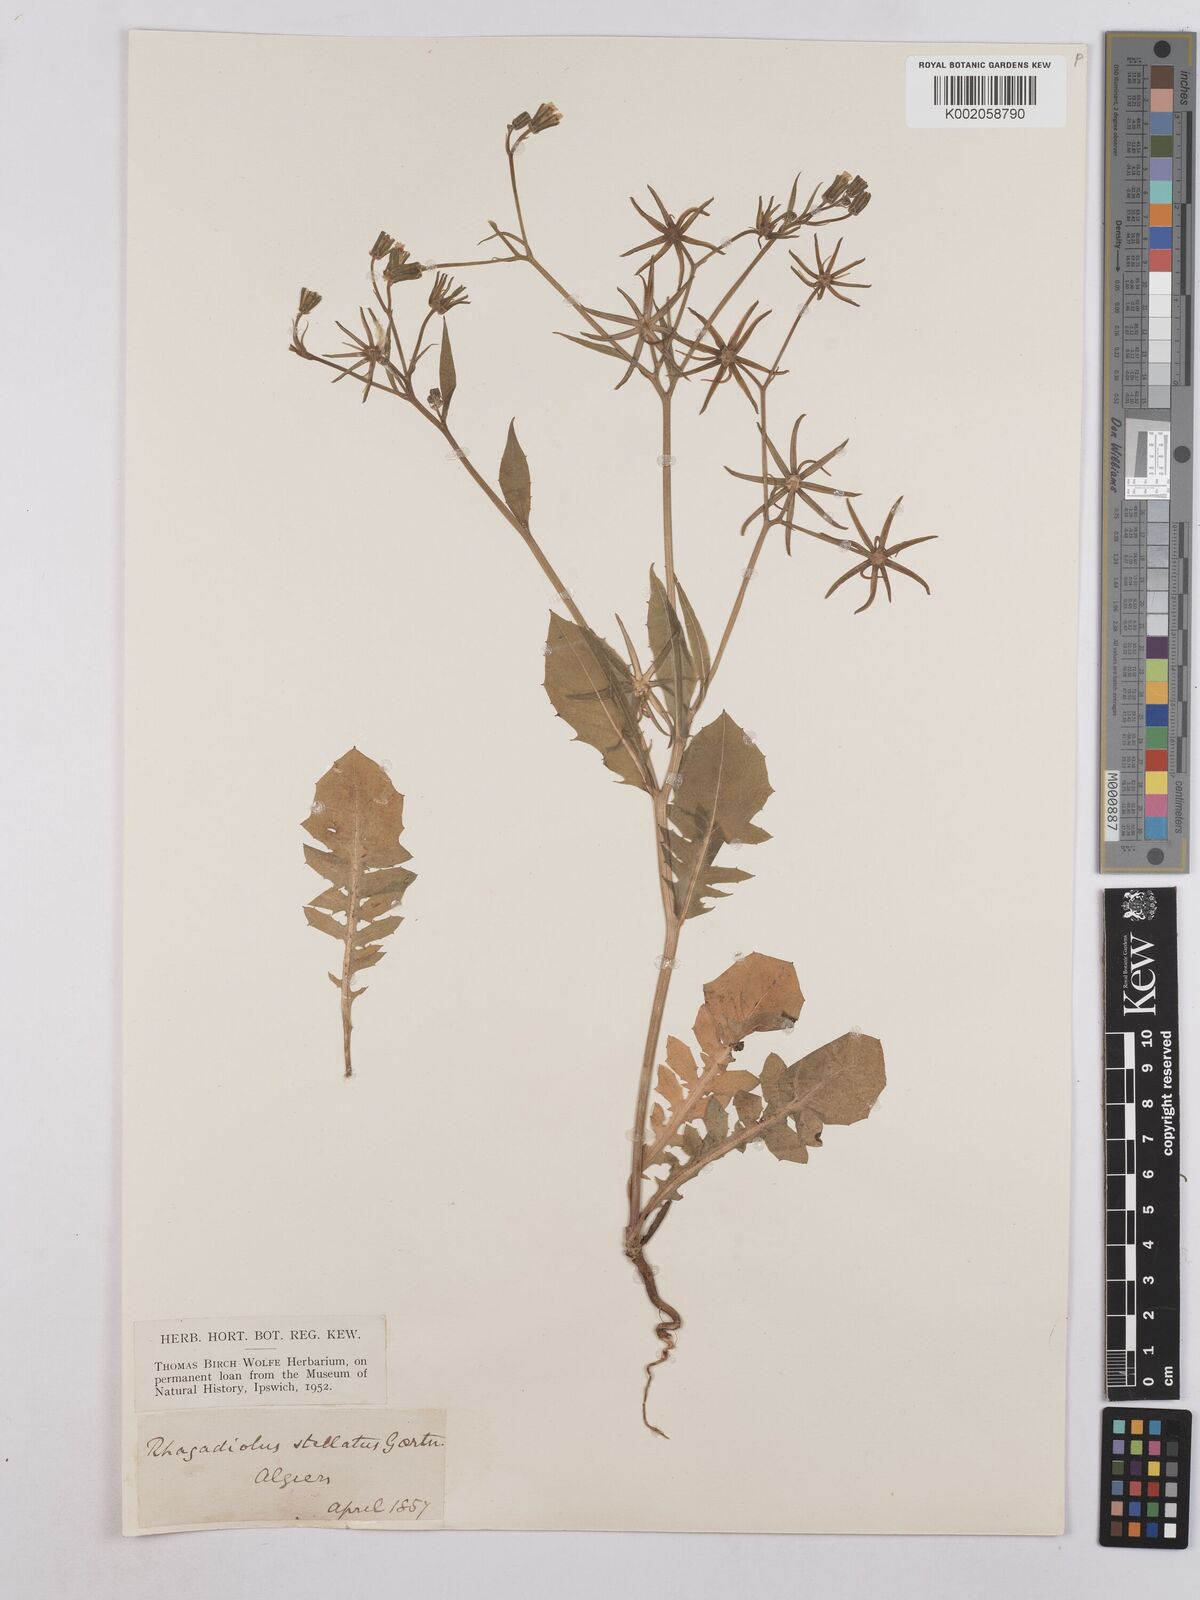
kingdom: Plantae
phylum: Tracheophyta
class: Magnoliopsida
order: Asterales
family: Asteraceae
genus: Rhagadiolus
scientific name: Rhagadiolus stellatus
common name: Star hawkbit
